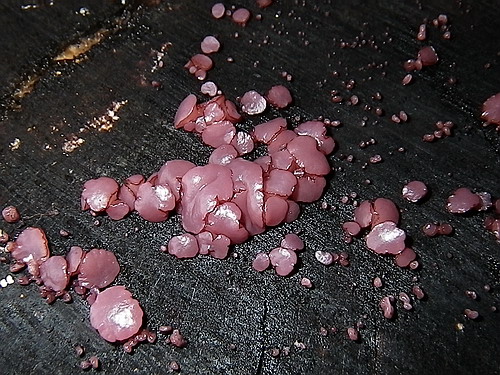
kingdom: Fungi
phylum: Ascomycota
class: Leotiomycetes
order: Helotiales
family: Gelatinodiscaceae
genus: Ascocoryne
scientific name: Ascocoryne sarcoides
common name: rødlilla sejskive
